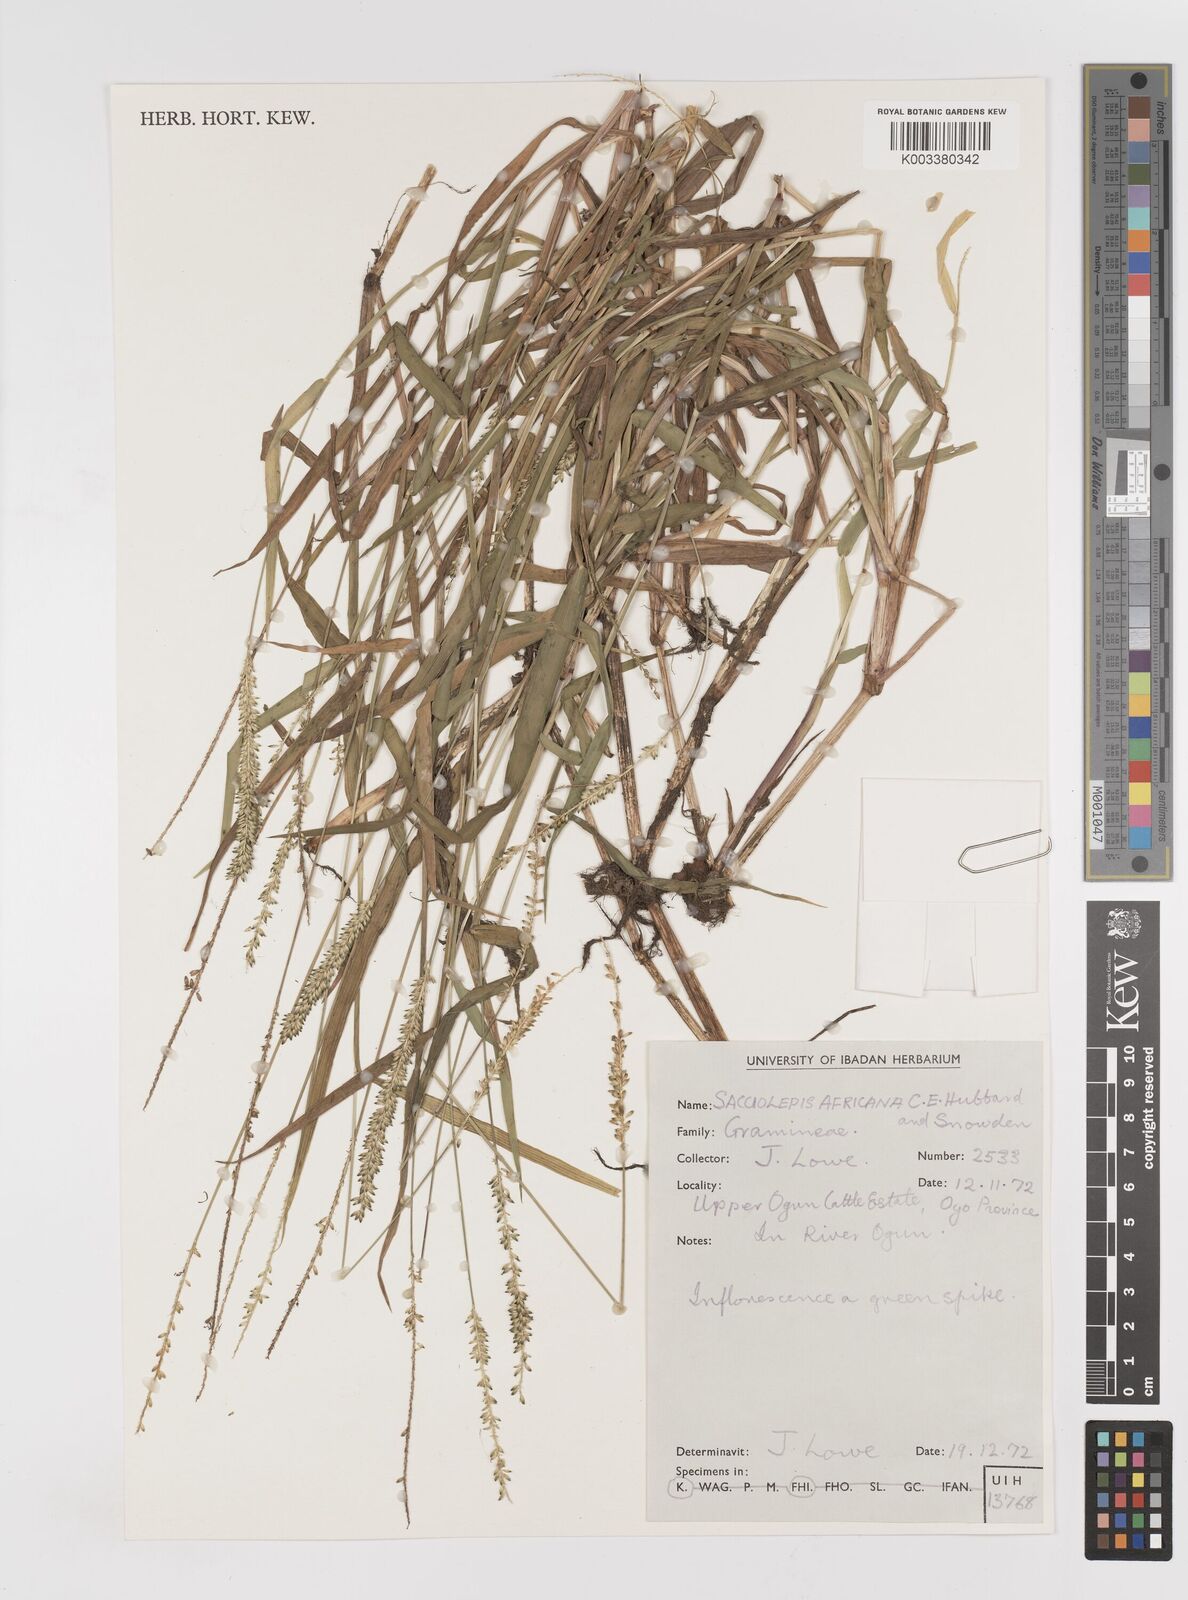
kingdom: Plantae
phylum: Tracheophyta
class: Liliopsida
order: Poales
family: Poaceae
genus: Sacciolepis
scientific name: Sacciolepis africana
